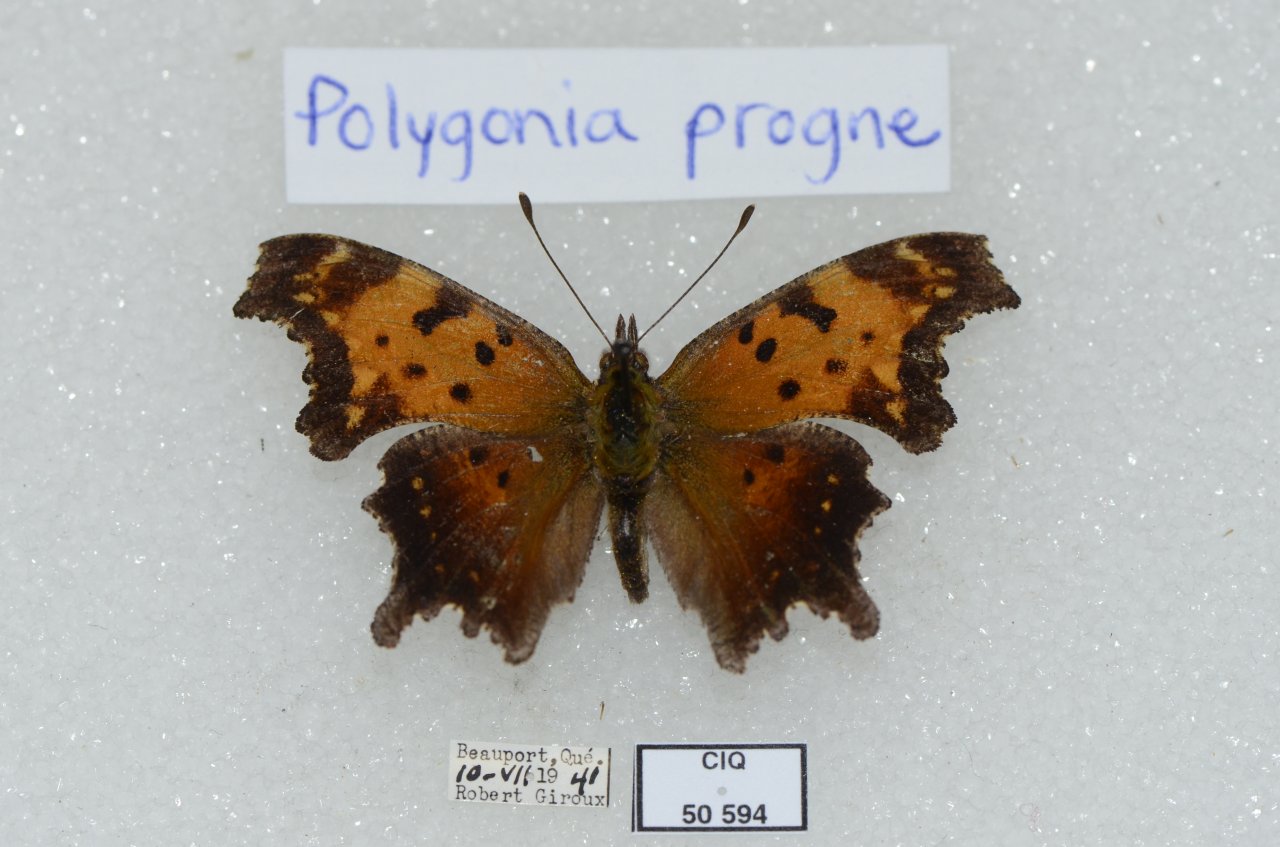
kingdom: Animalia
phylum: Arthropoda
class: Insecta
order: Lepidoptera
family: Nymphalidae
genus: Polygonia
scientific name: Polygonia progne
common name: Gray Comma
